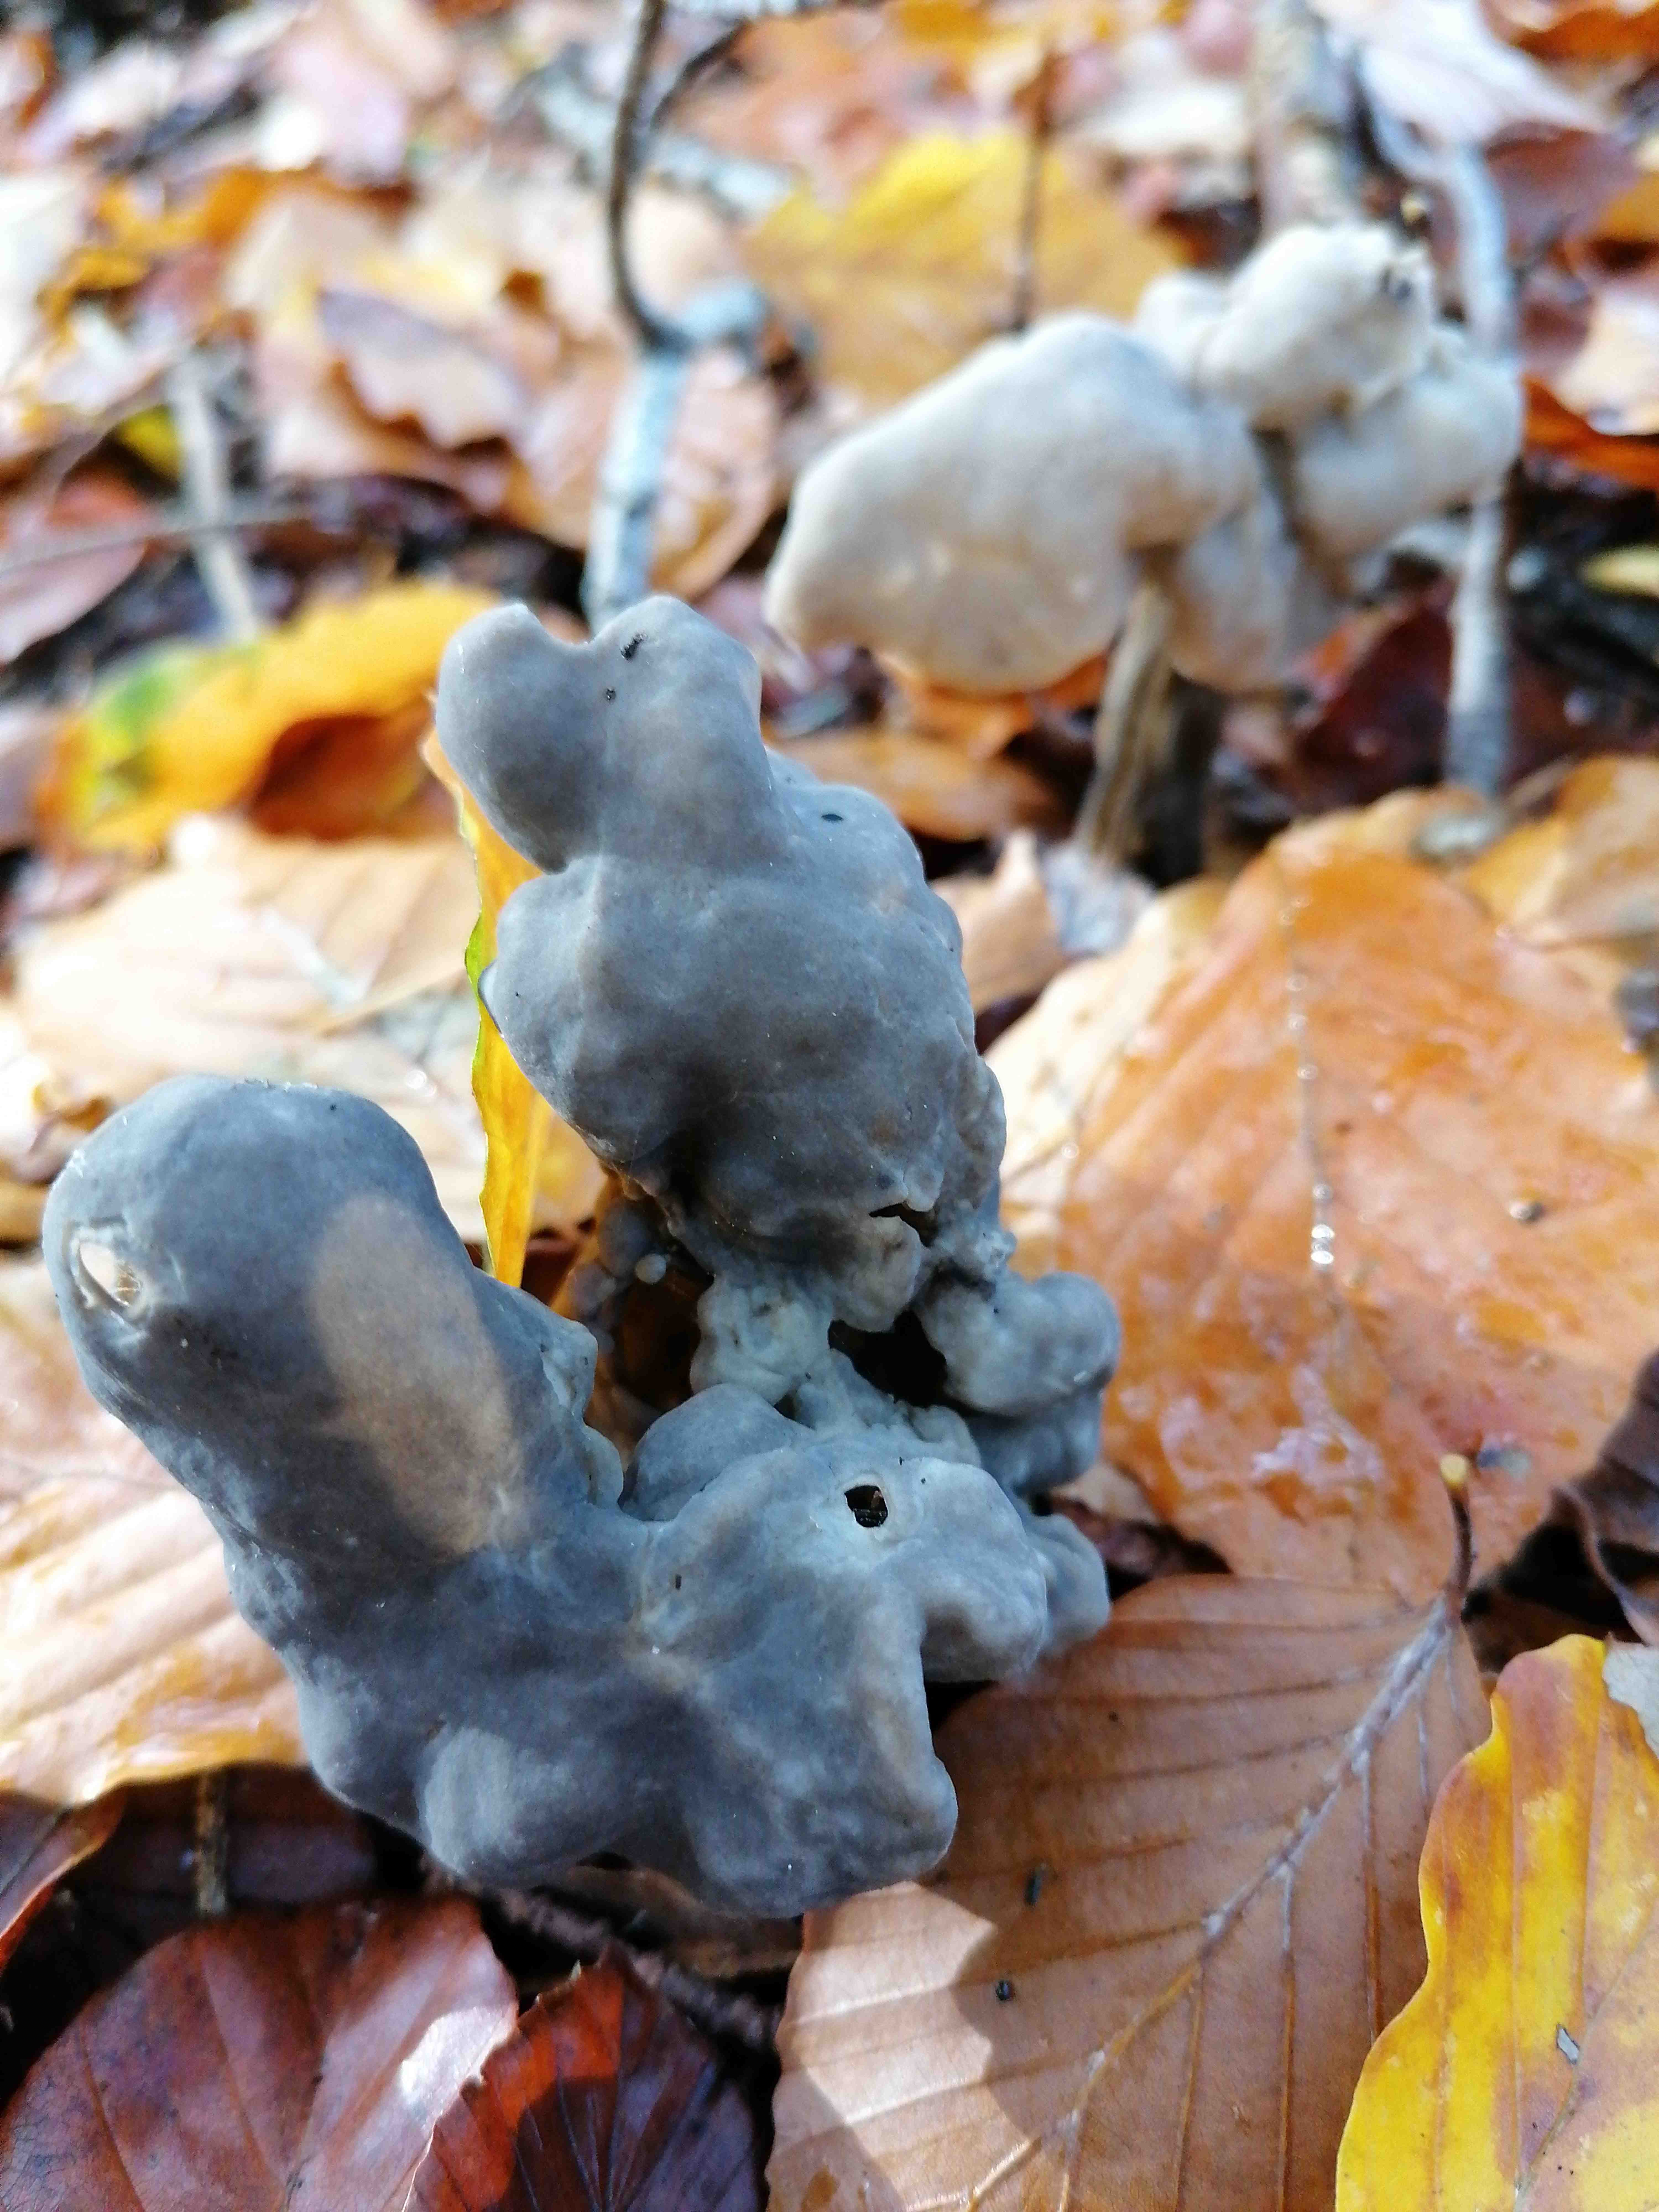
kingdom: Fungi
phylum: Ascomycota
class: Pezizomycetes
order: Pezizales
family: Helvellaceae
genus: Helvella
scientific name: Helvella lacunosa
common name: grubet foldhat
